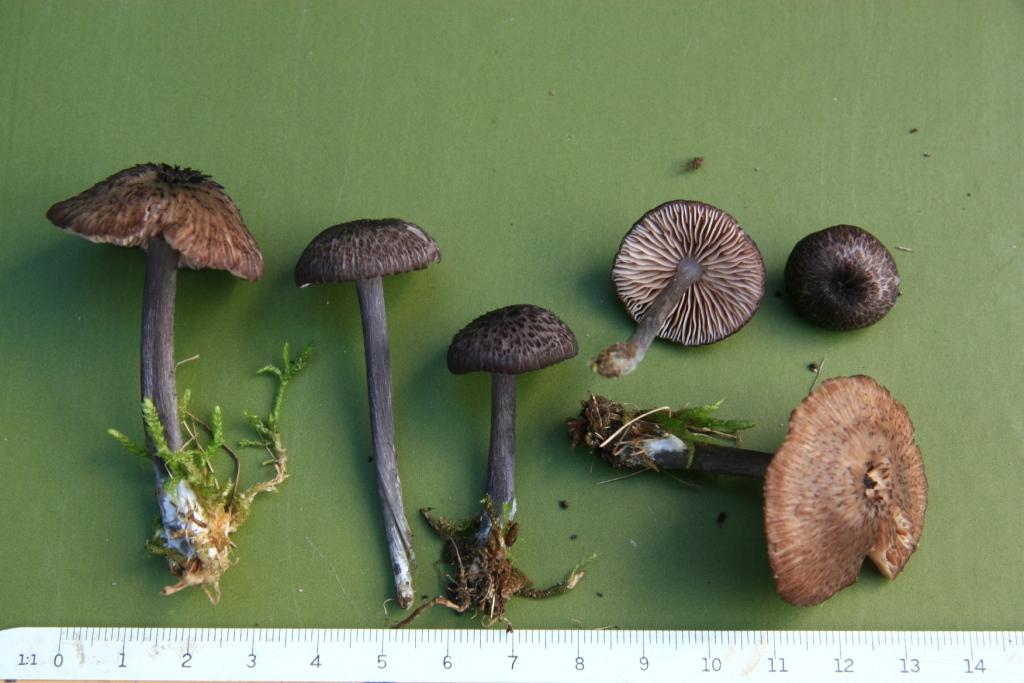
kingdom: Fungi
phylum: Basidiomycota
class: Agaricomycetes
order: Agaricales
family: Entolomataceae
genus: Entoloma
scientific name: Entoloma viiduense
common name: purpurbrun rødblad
